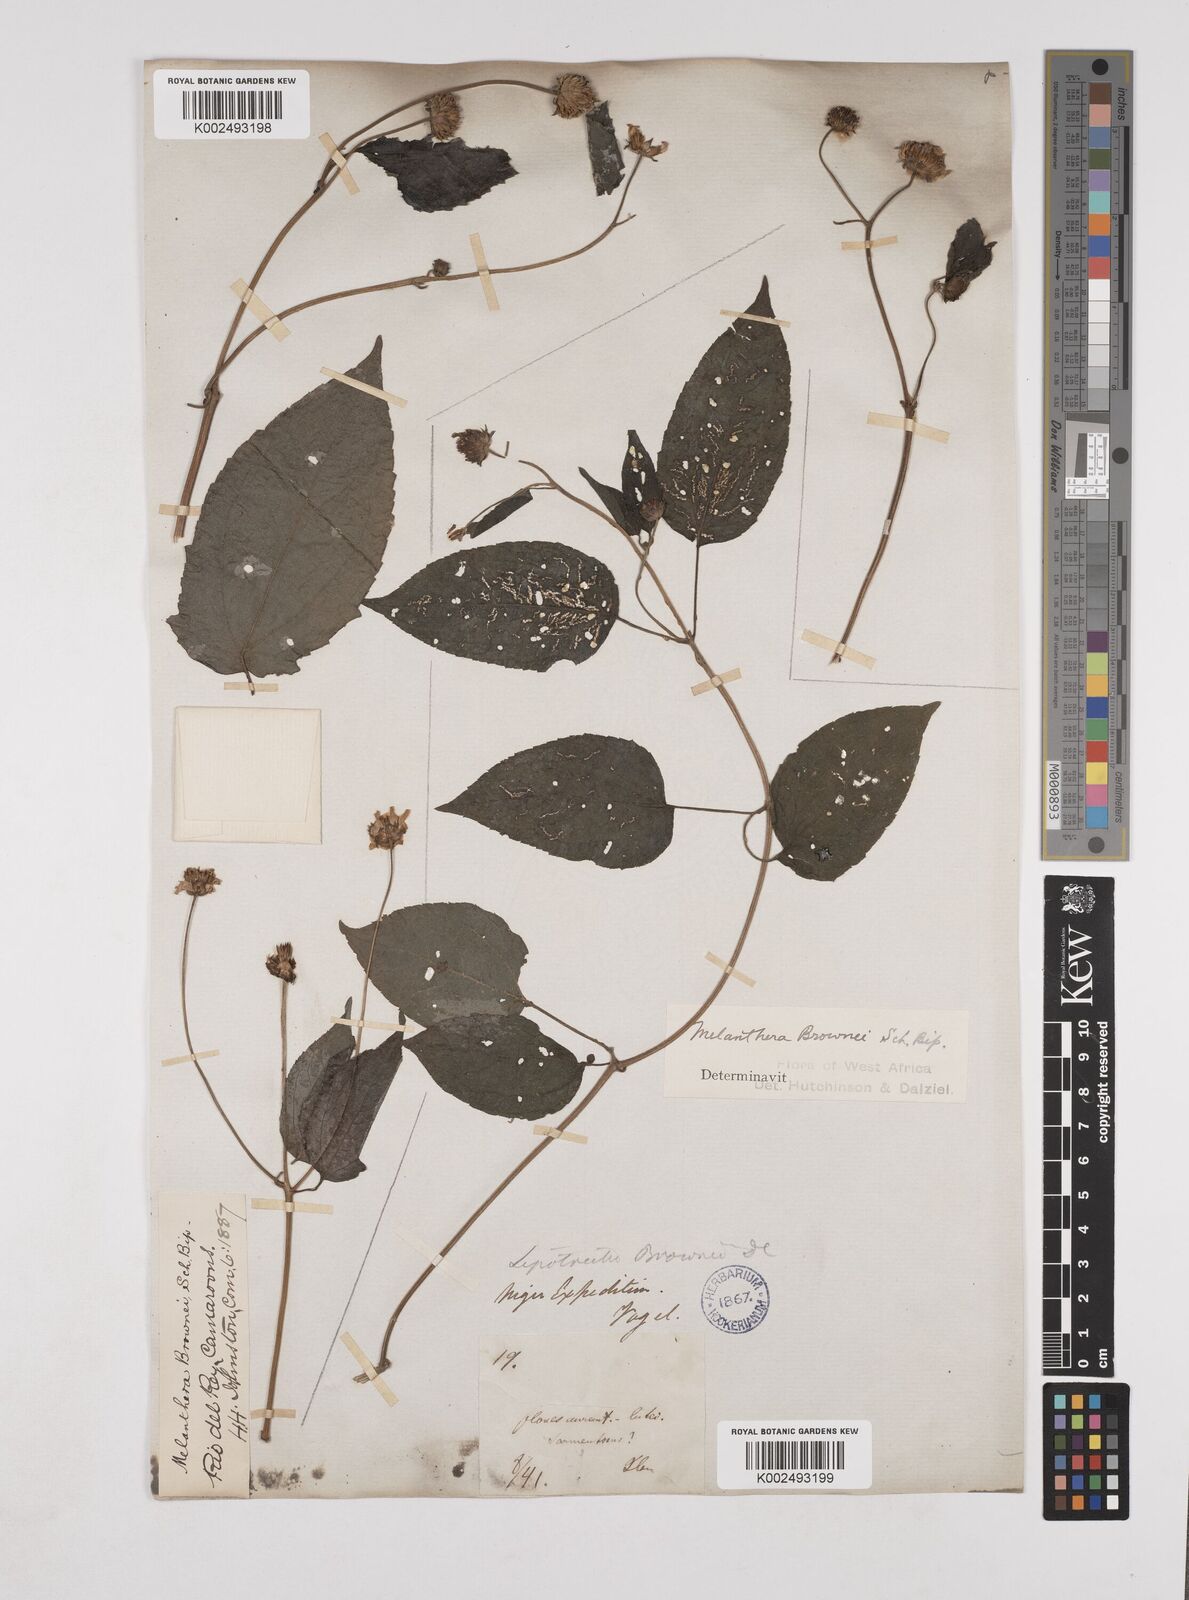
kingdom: Plantae
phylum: Tracheophyta
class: Magnoliopsida
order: Asterales
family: Asteraceae
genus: Lipotriche
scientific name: Lipotriche scandens
